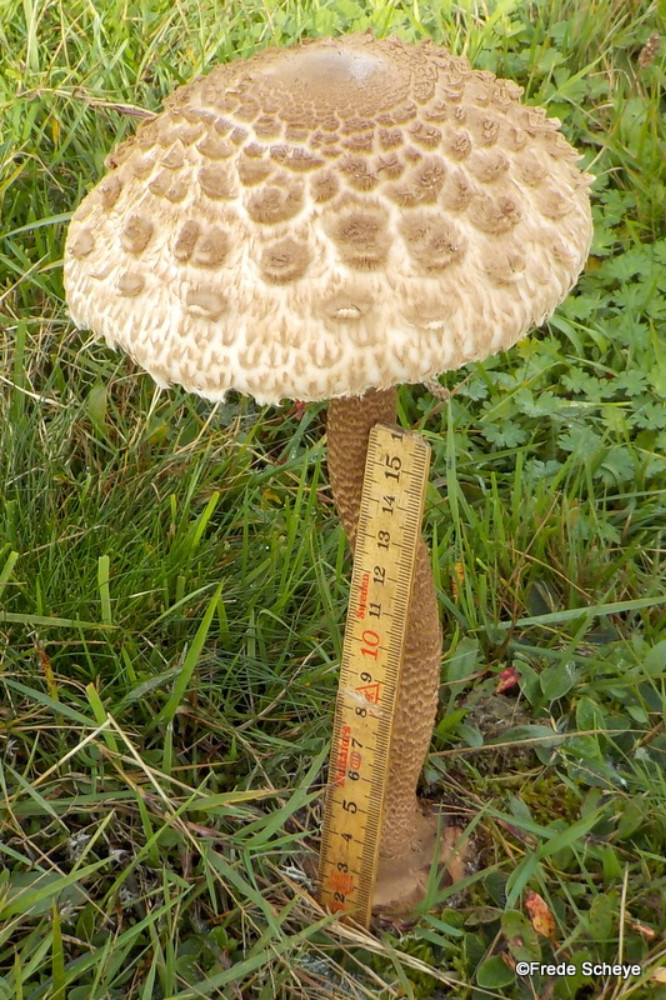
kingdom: Fungi
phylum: Basidiomycota
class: Agaricomycetes
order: Agaricales
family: Agaricaceae
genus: Macrolepiota
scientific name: Macrolepiota procera
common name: stor kæmpeparasolhat
